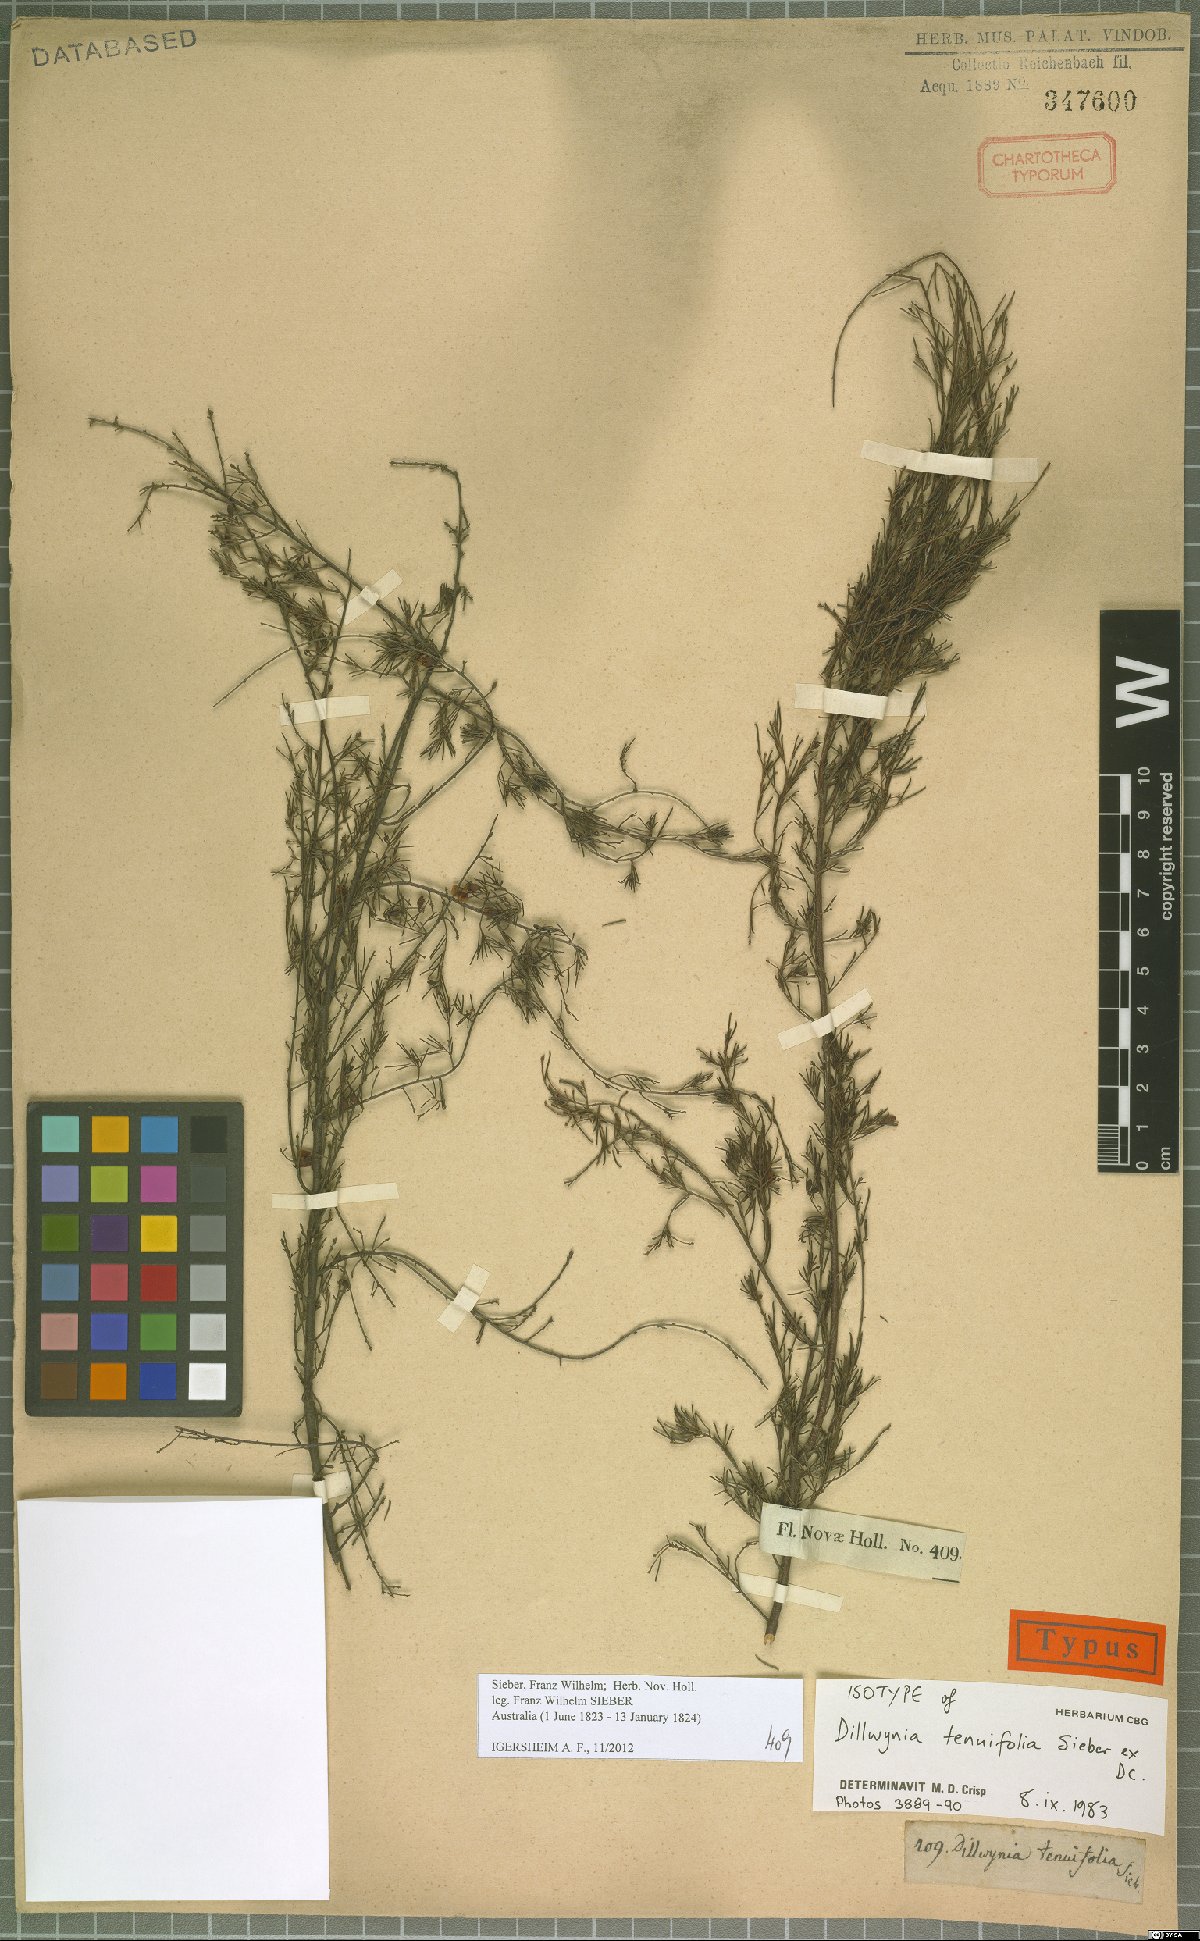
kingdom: Plantae
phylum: Tracheophyta
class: Magnoliopsida
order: Fabales
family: Fabaceae
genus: Dillwynia
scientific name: Dillwynia tenuifolia
